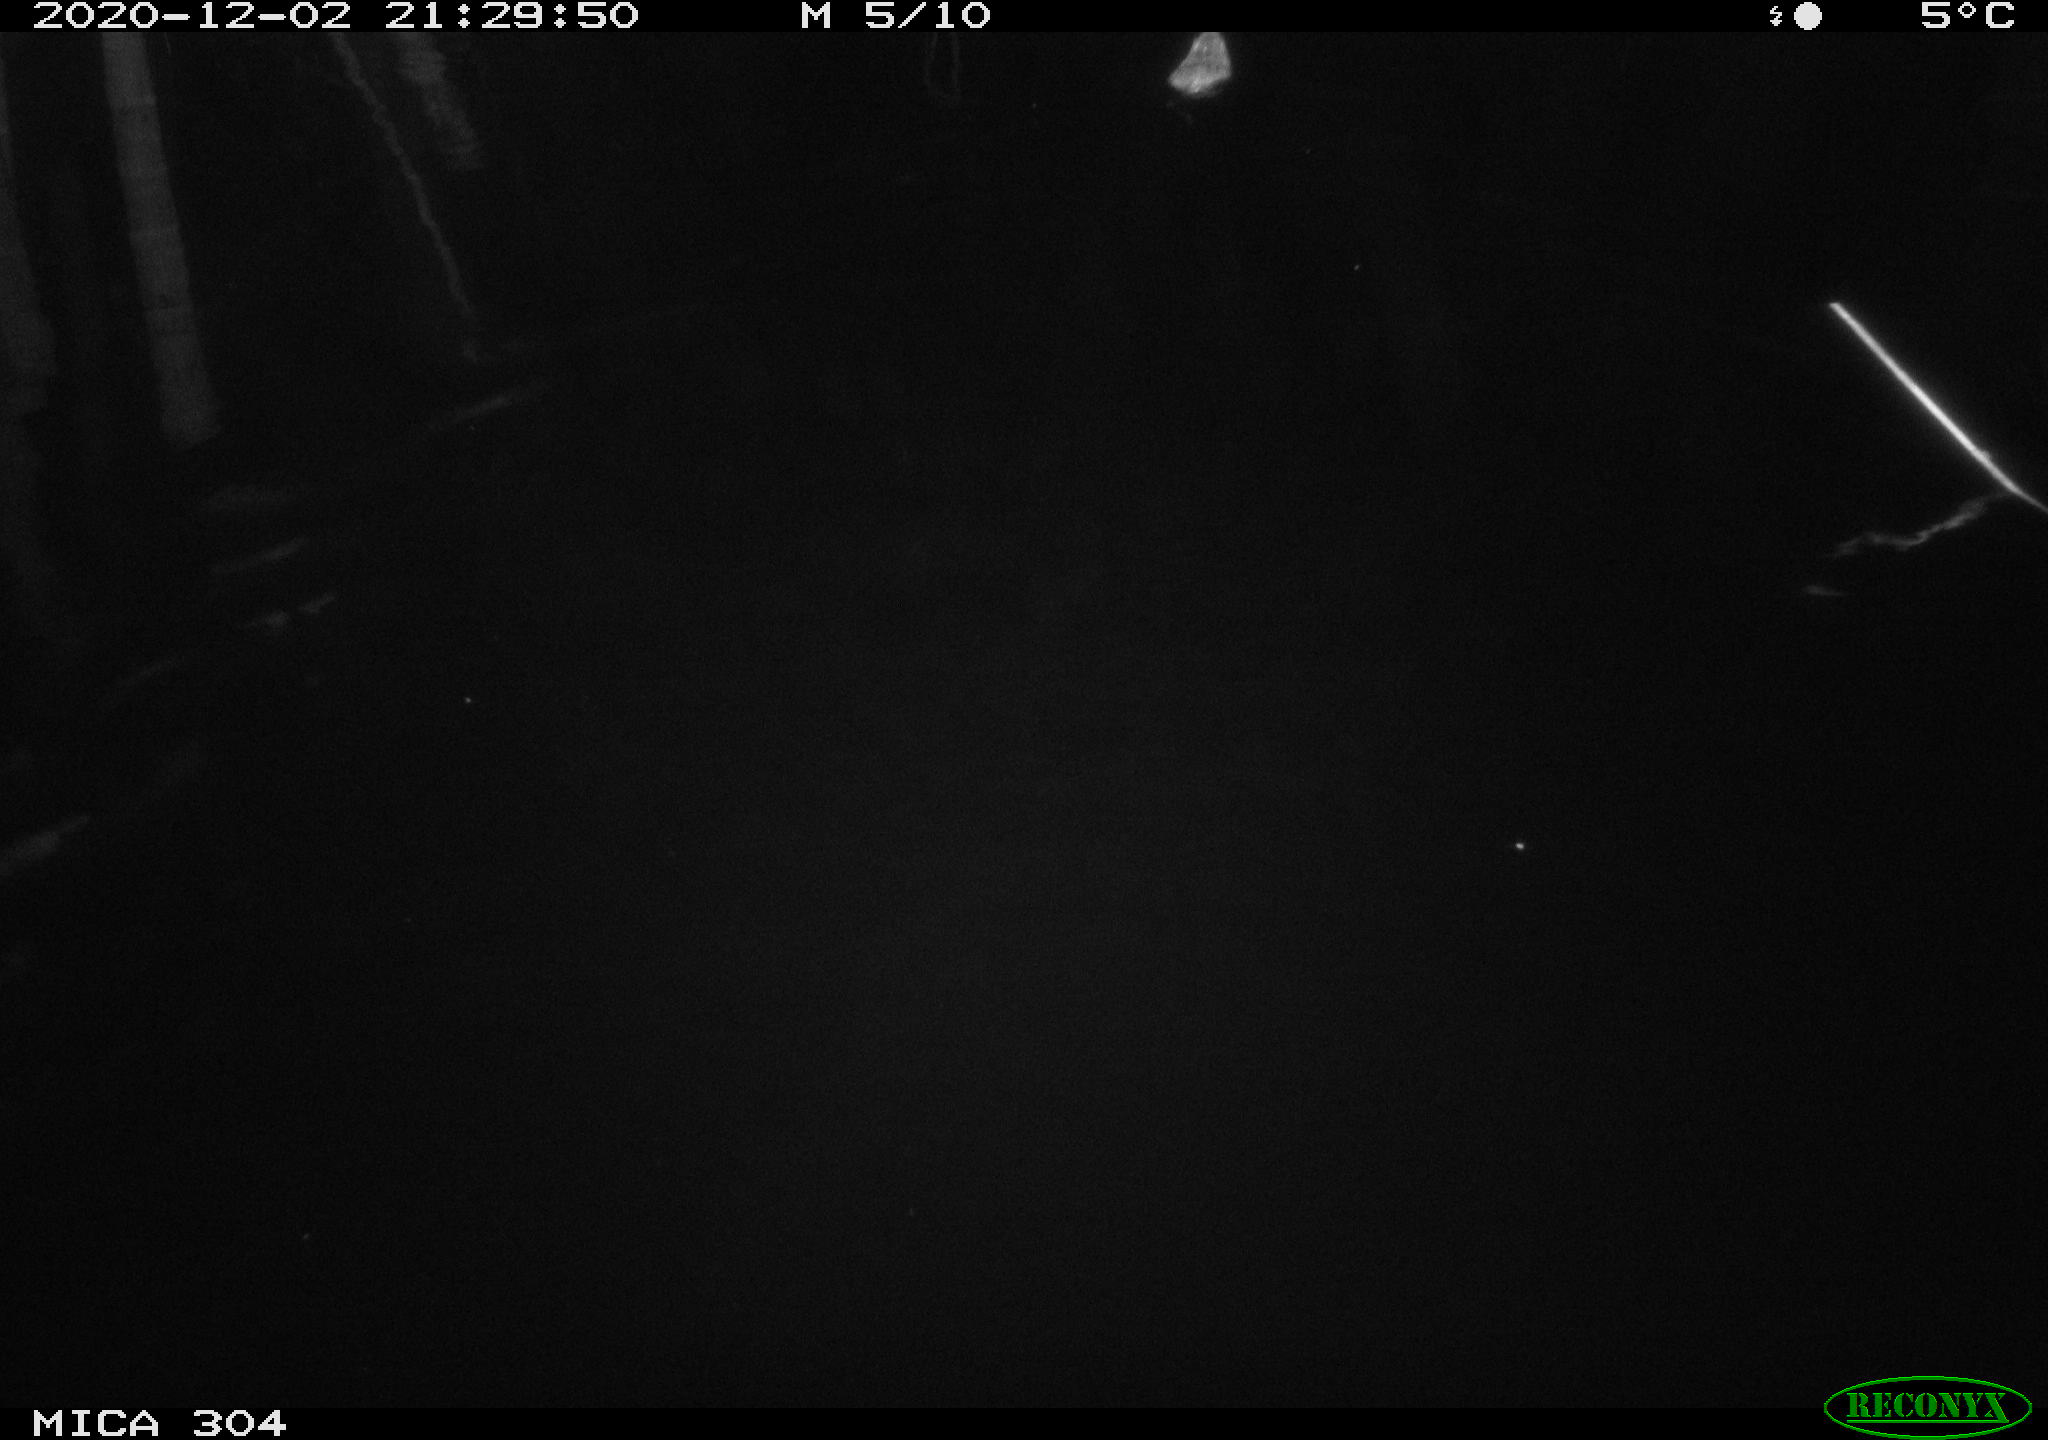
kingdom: Animalia
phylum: Chordata
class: Mammalia
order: Rodentia
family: Muridae
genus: Rattus
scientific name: Rattus norvegicus
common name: Brown rat
